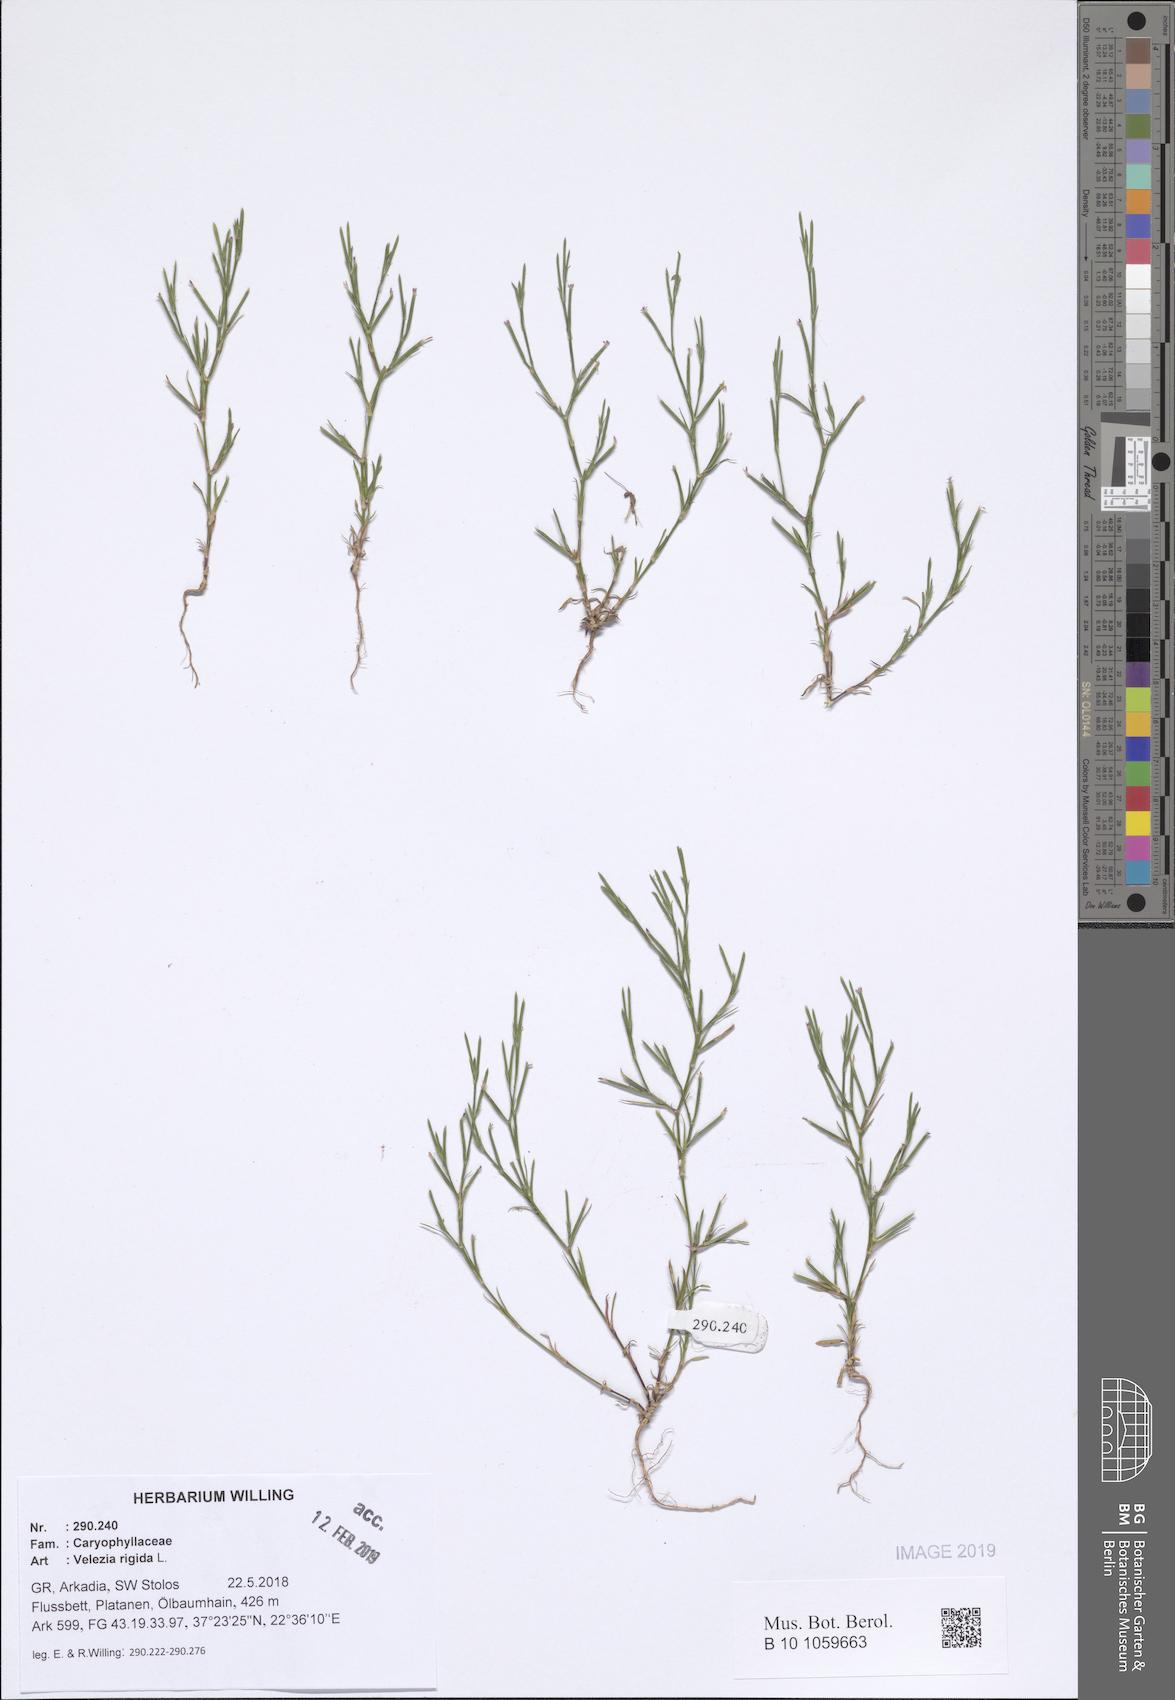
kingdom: Plantae
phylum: Tracheophyta
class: Magnoliopsida
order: Caryophyllales
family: Caryophyllaceae
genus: Dianthus
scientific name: Dianthus nudiflorus
